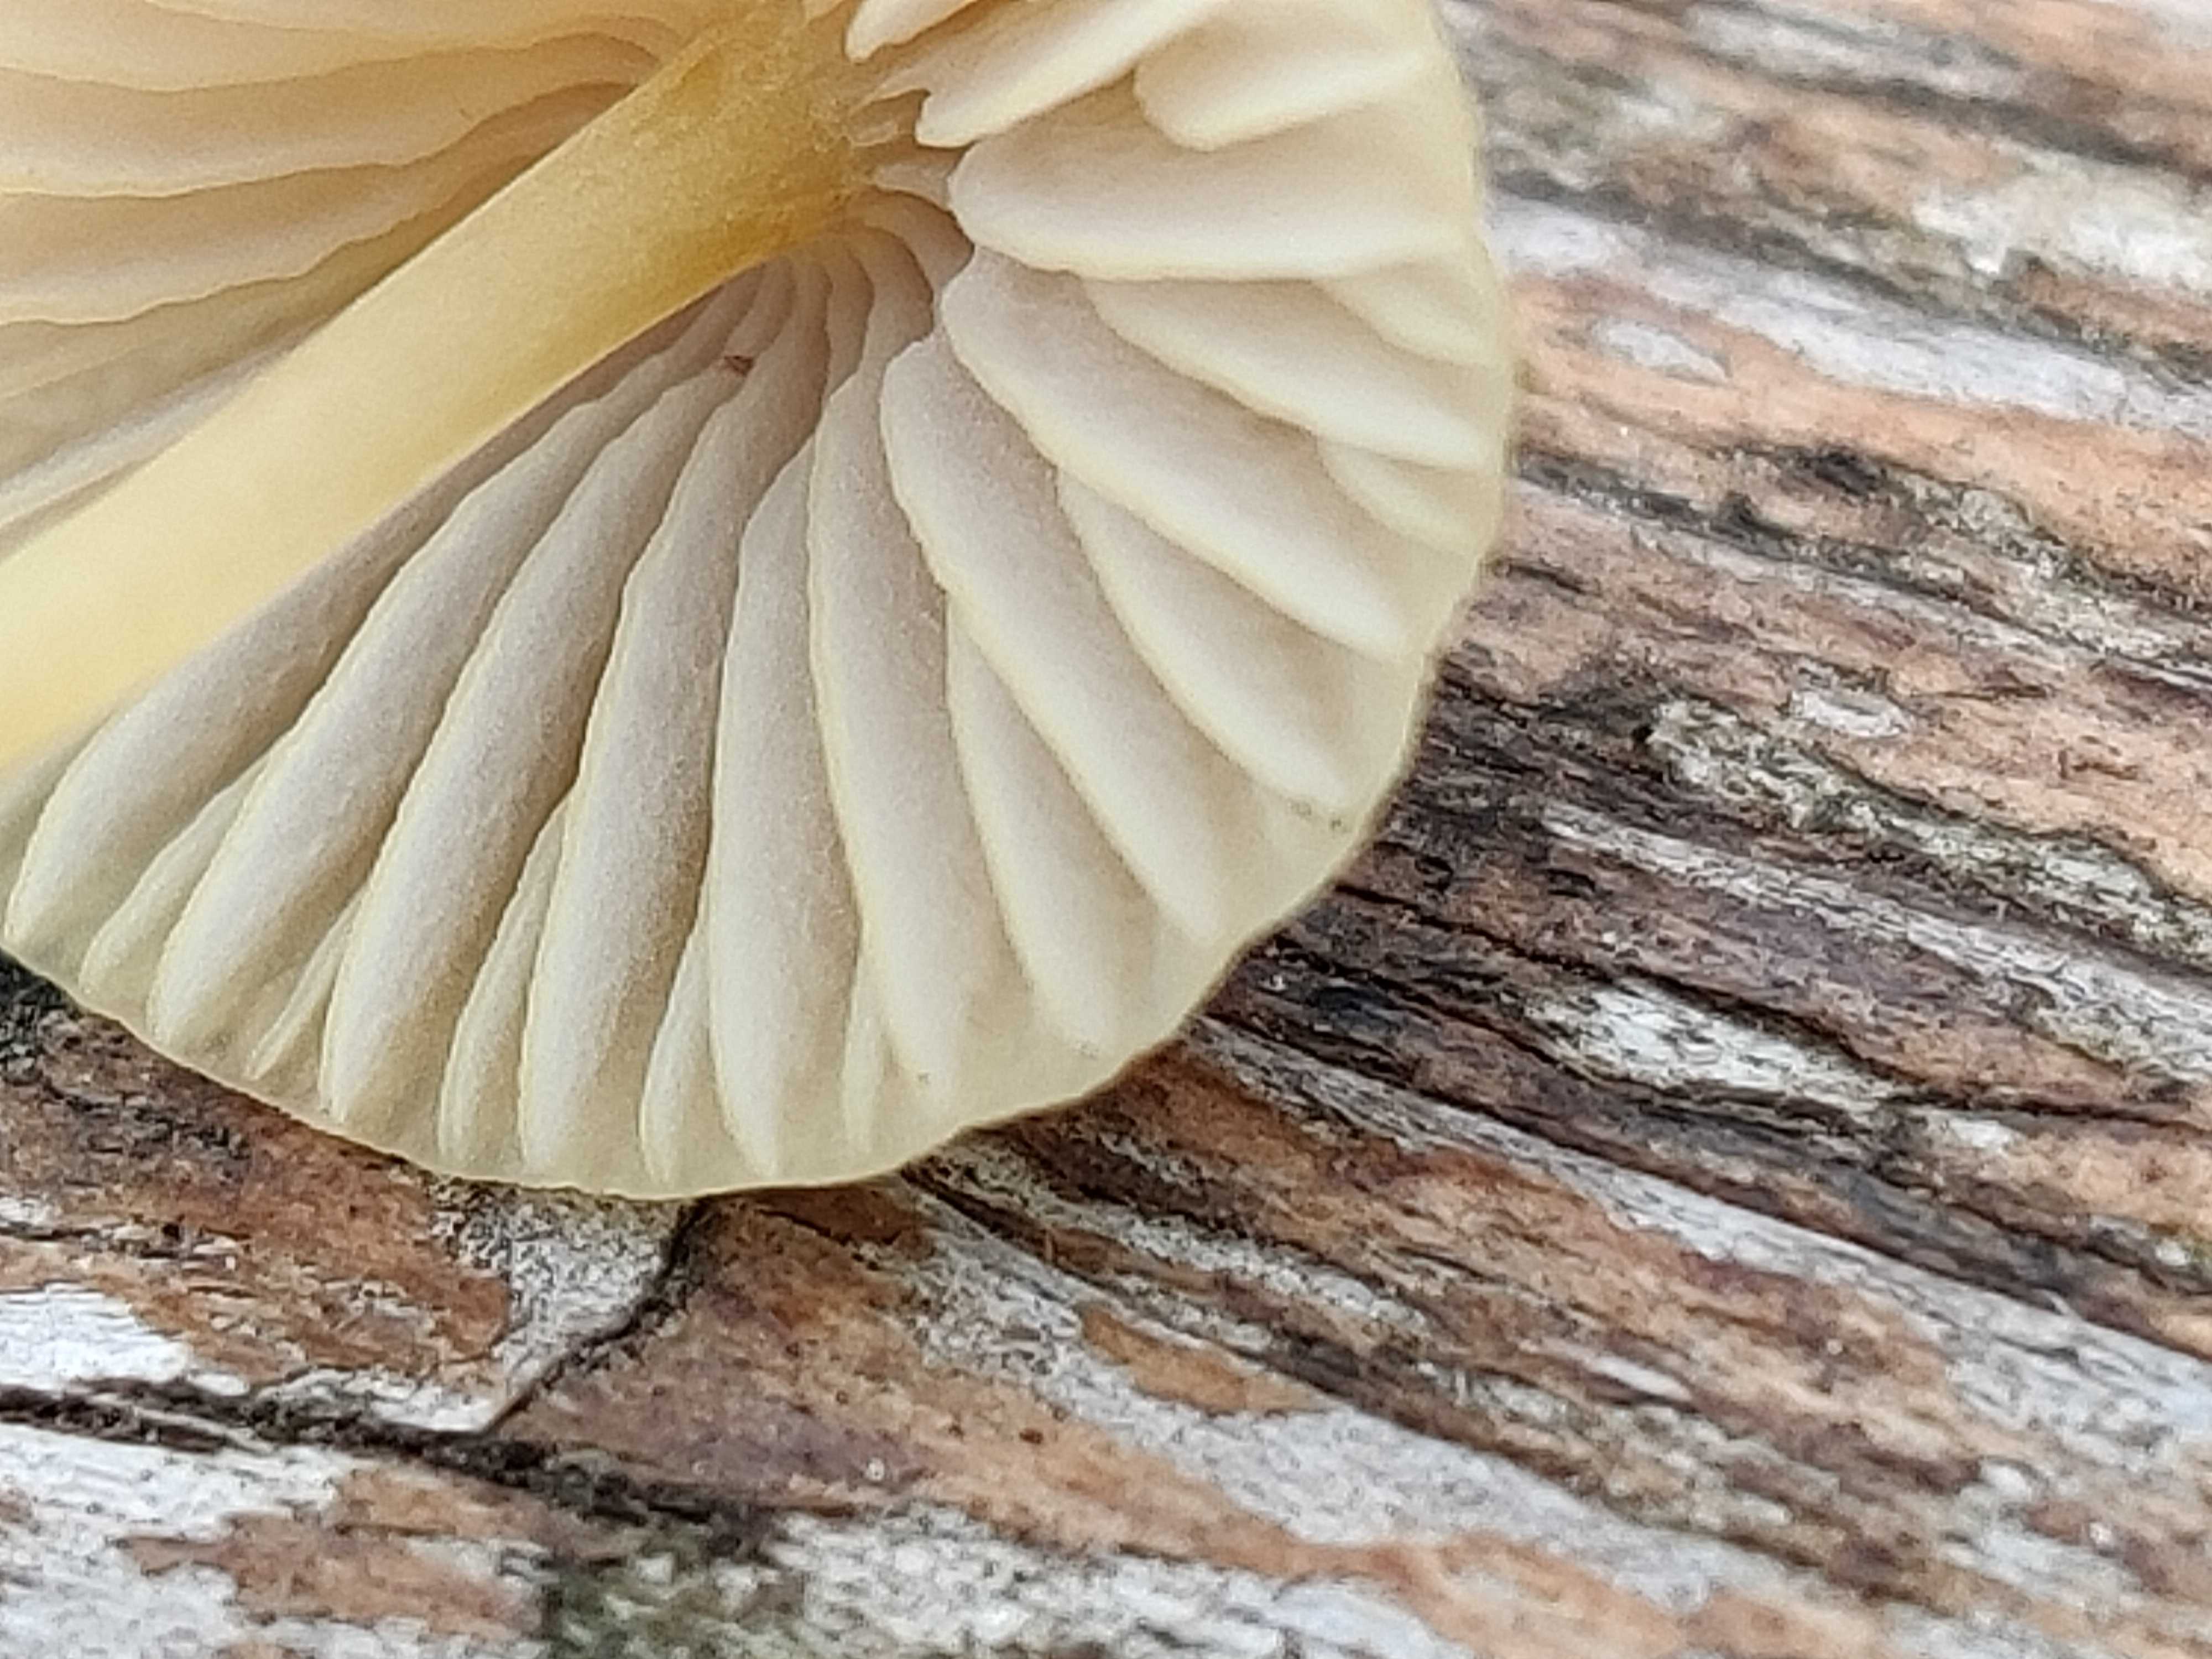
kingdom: Fungi
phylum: Basidiomycota
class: Agaricomycetes
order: Agaricales
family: Mycenaceae
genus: Mycena
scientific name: Mycena
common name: huesvamp
